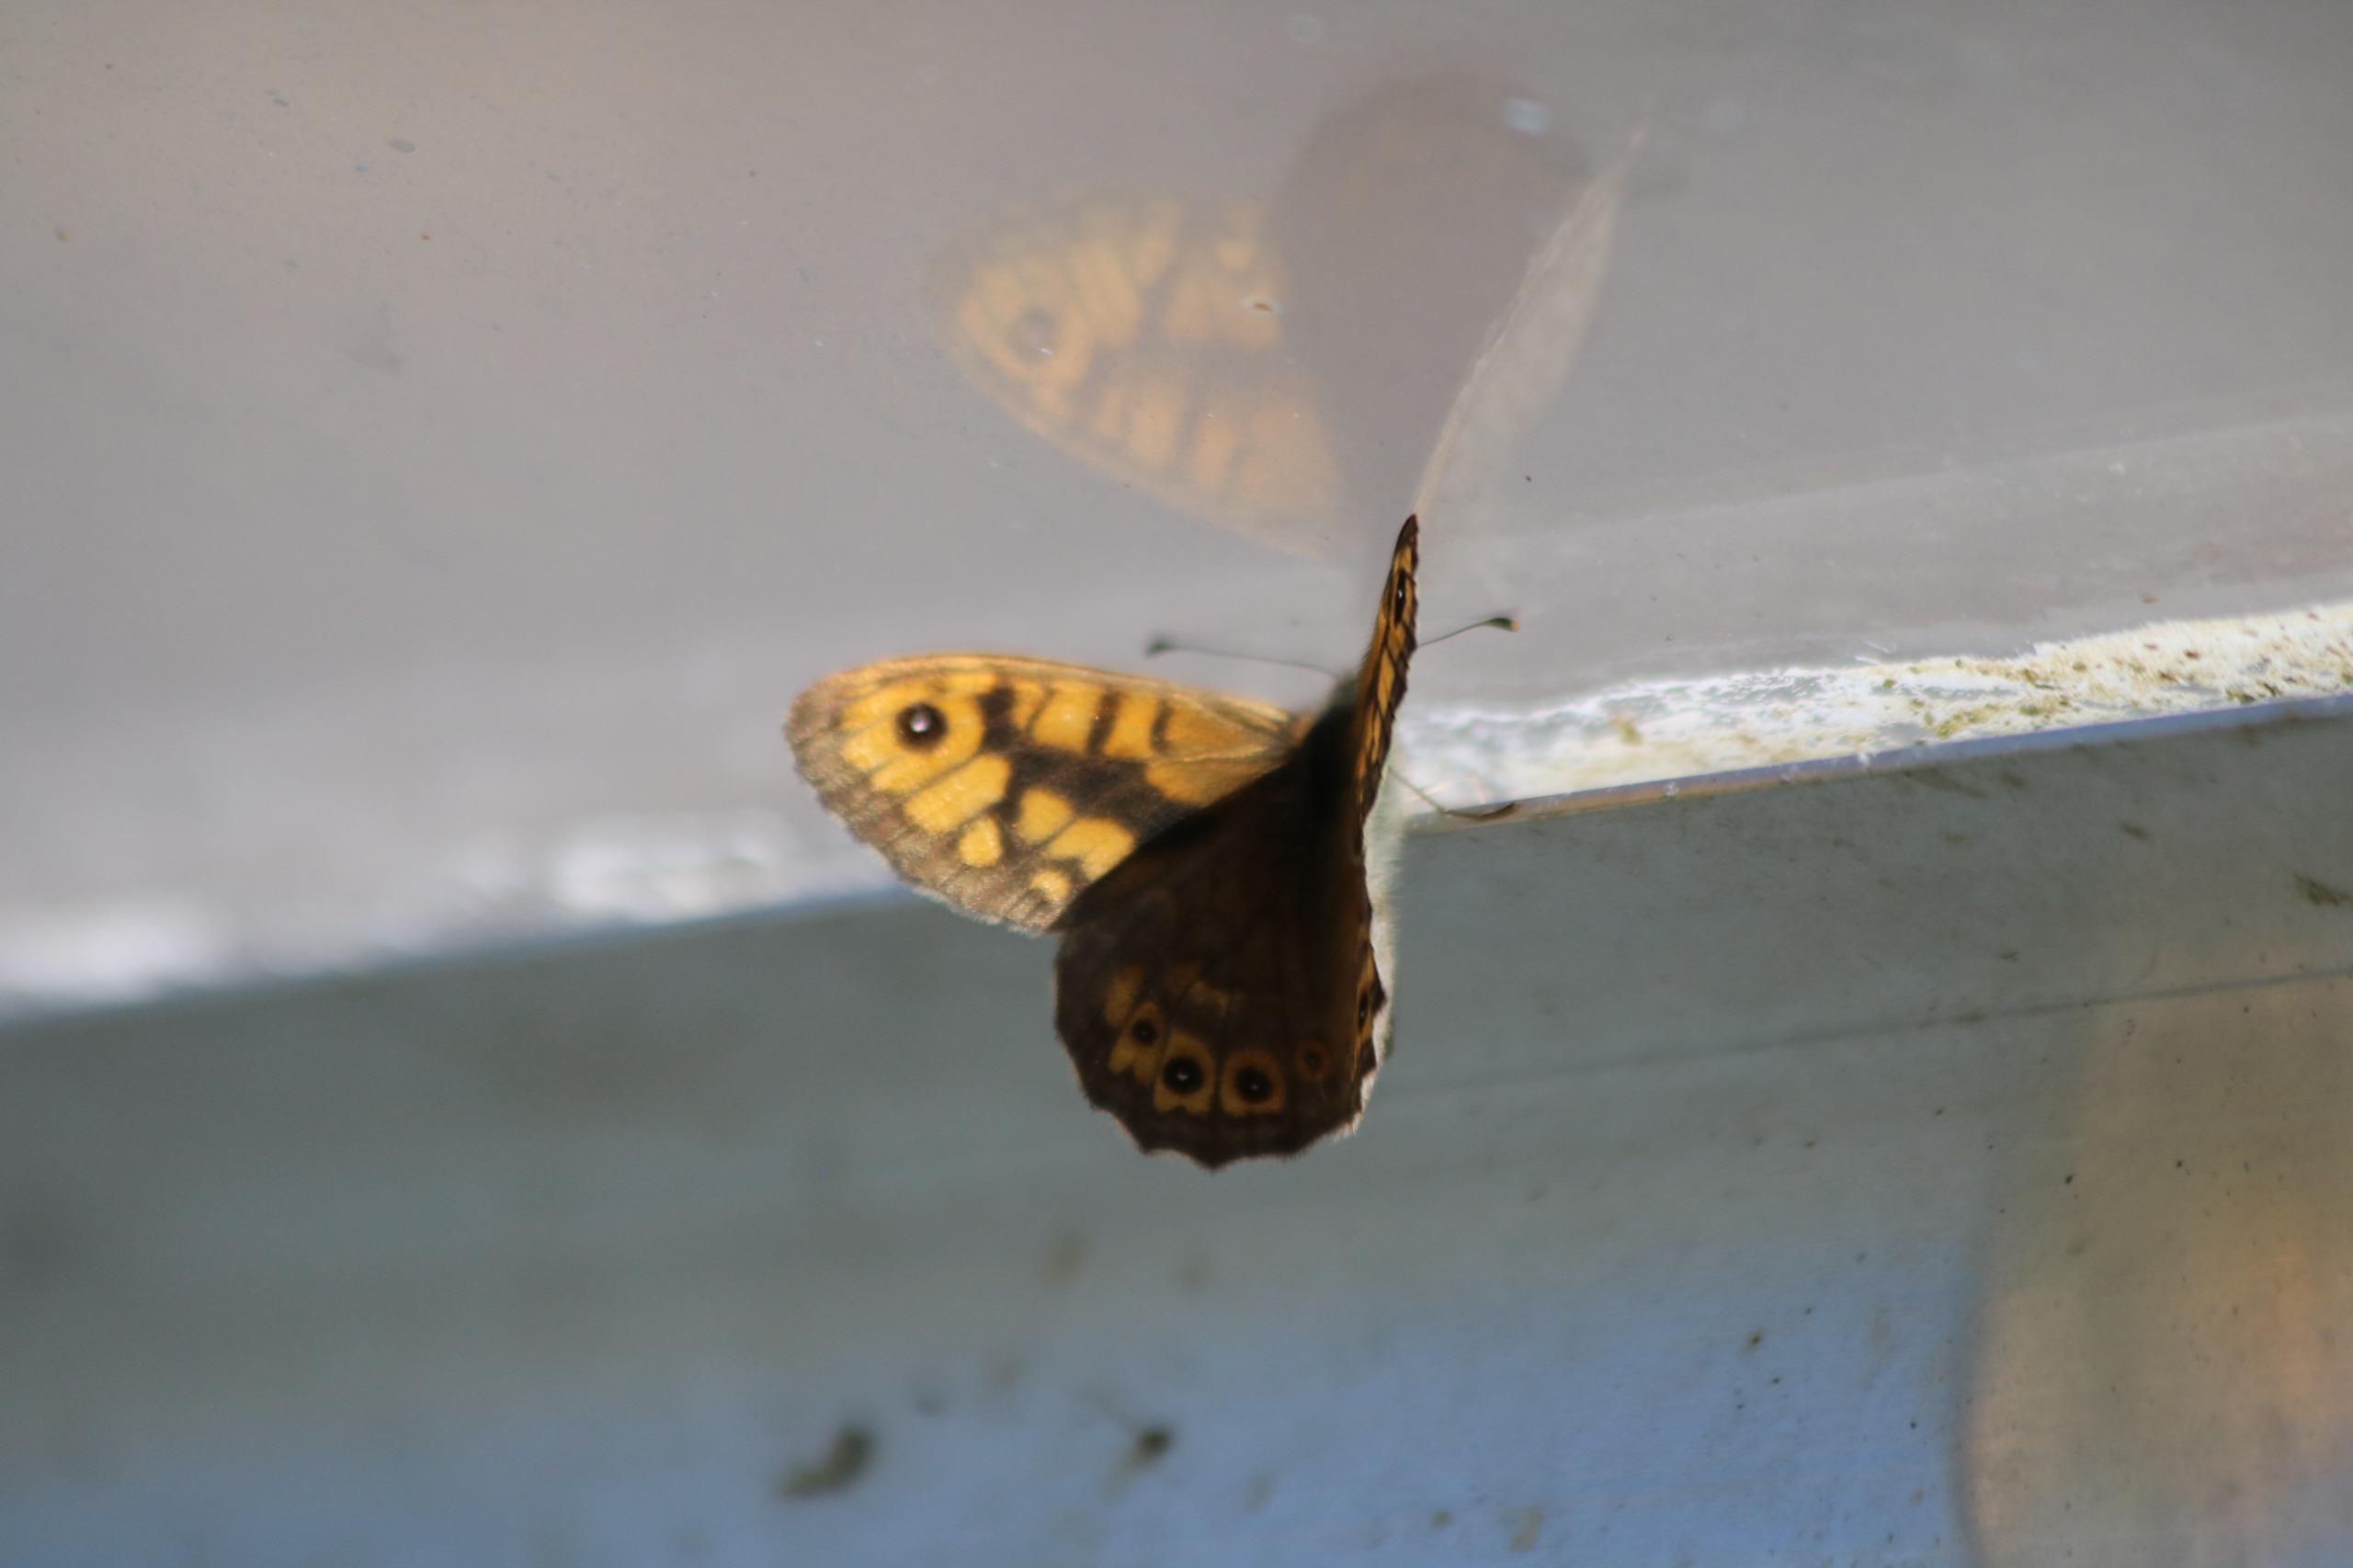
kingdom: Animalia
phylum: Arthropoda
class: Insecta
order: Lepidoptera
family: Nymphalidae
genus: Pararge
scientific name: Pararge Lasiommata megera
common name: Vejrandøje
